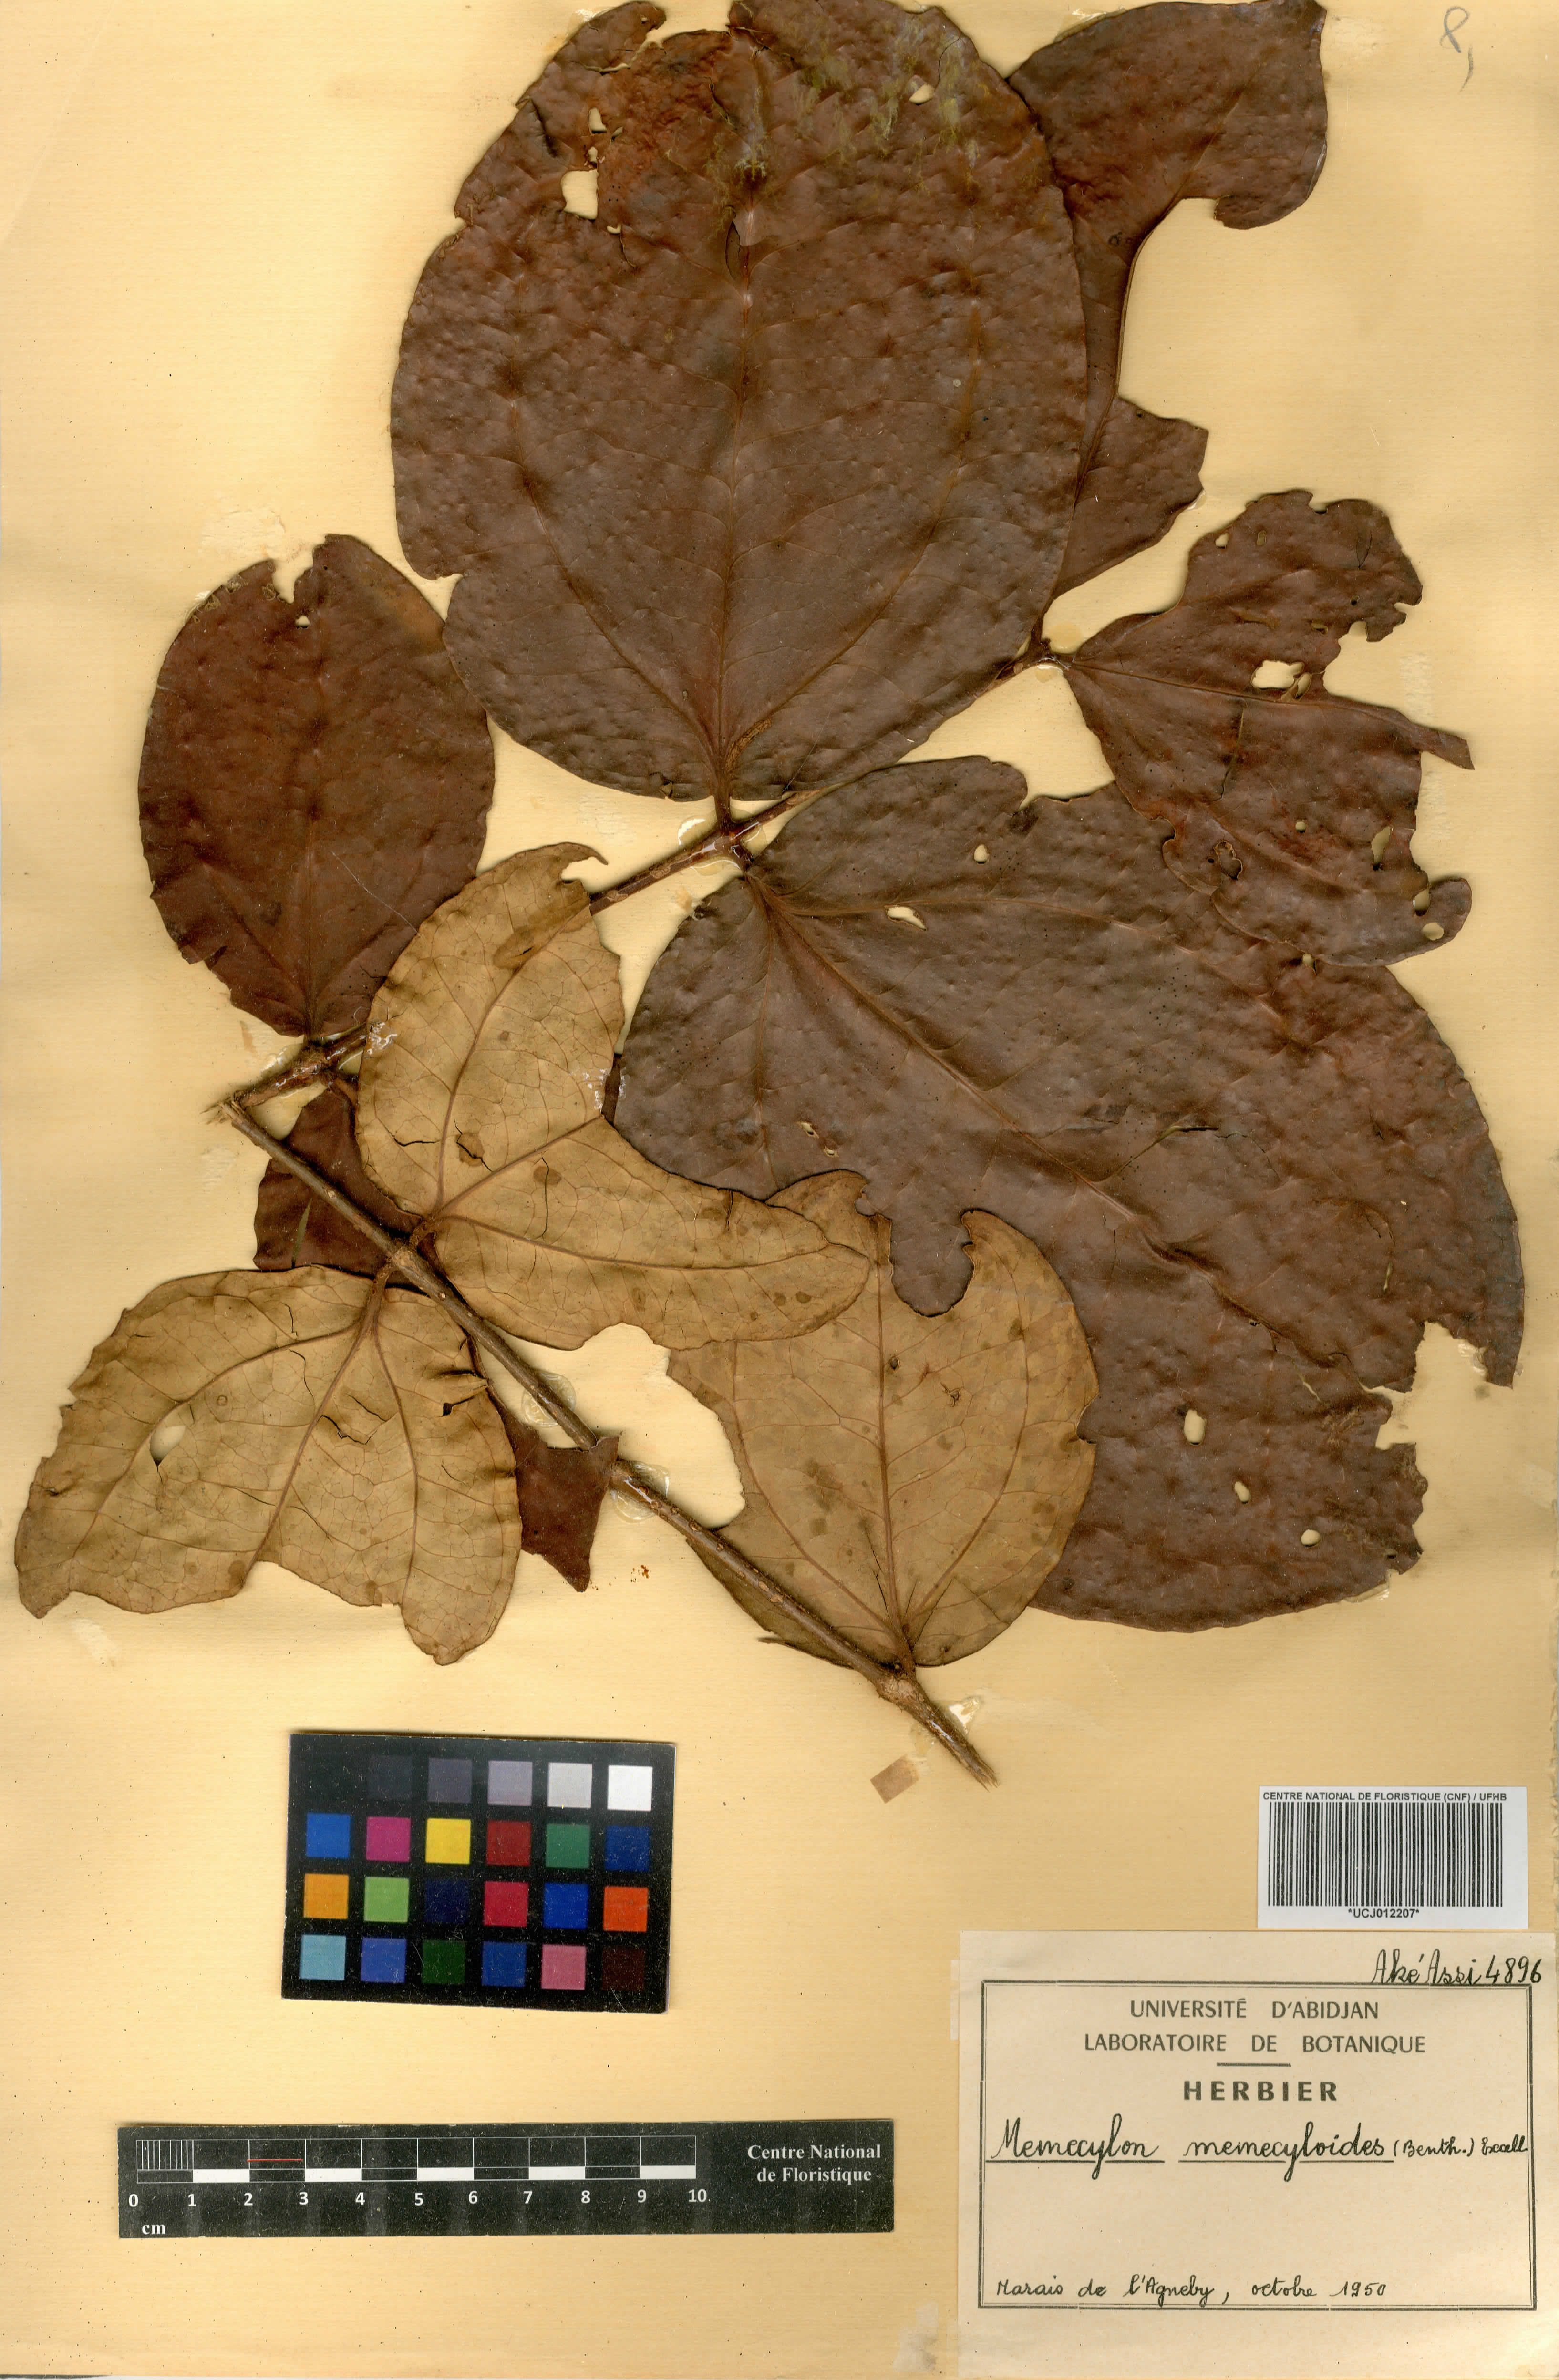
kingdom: Plantae
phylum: Tracheophyta
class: Magnoliopsida
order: Myrtales
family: Melastomataceae
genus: Warneckea
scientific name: Warneckea memecyloides
